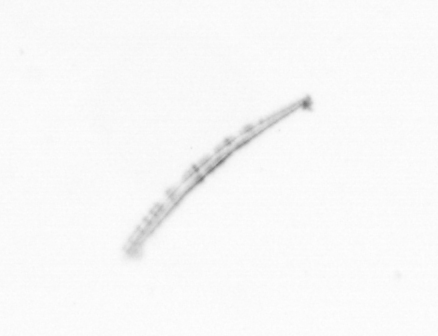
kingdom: Chromista
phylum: Ochrophyta
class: Bacillariophyceae
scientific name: Bacillariophyceae
